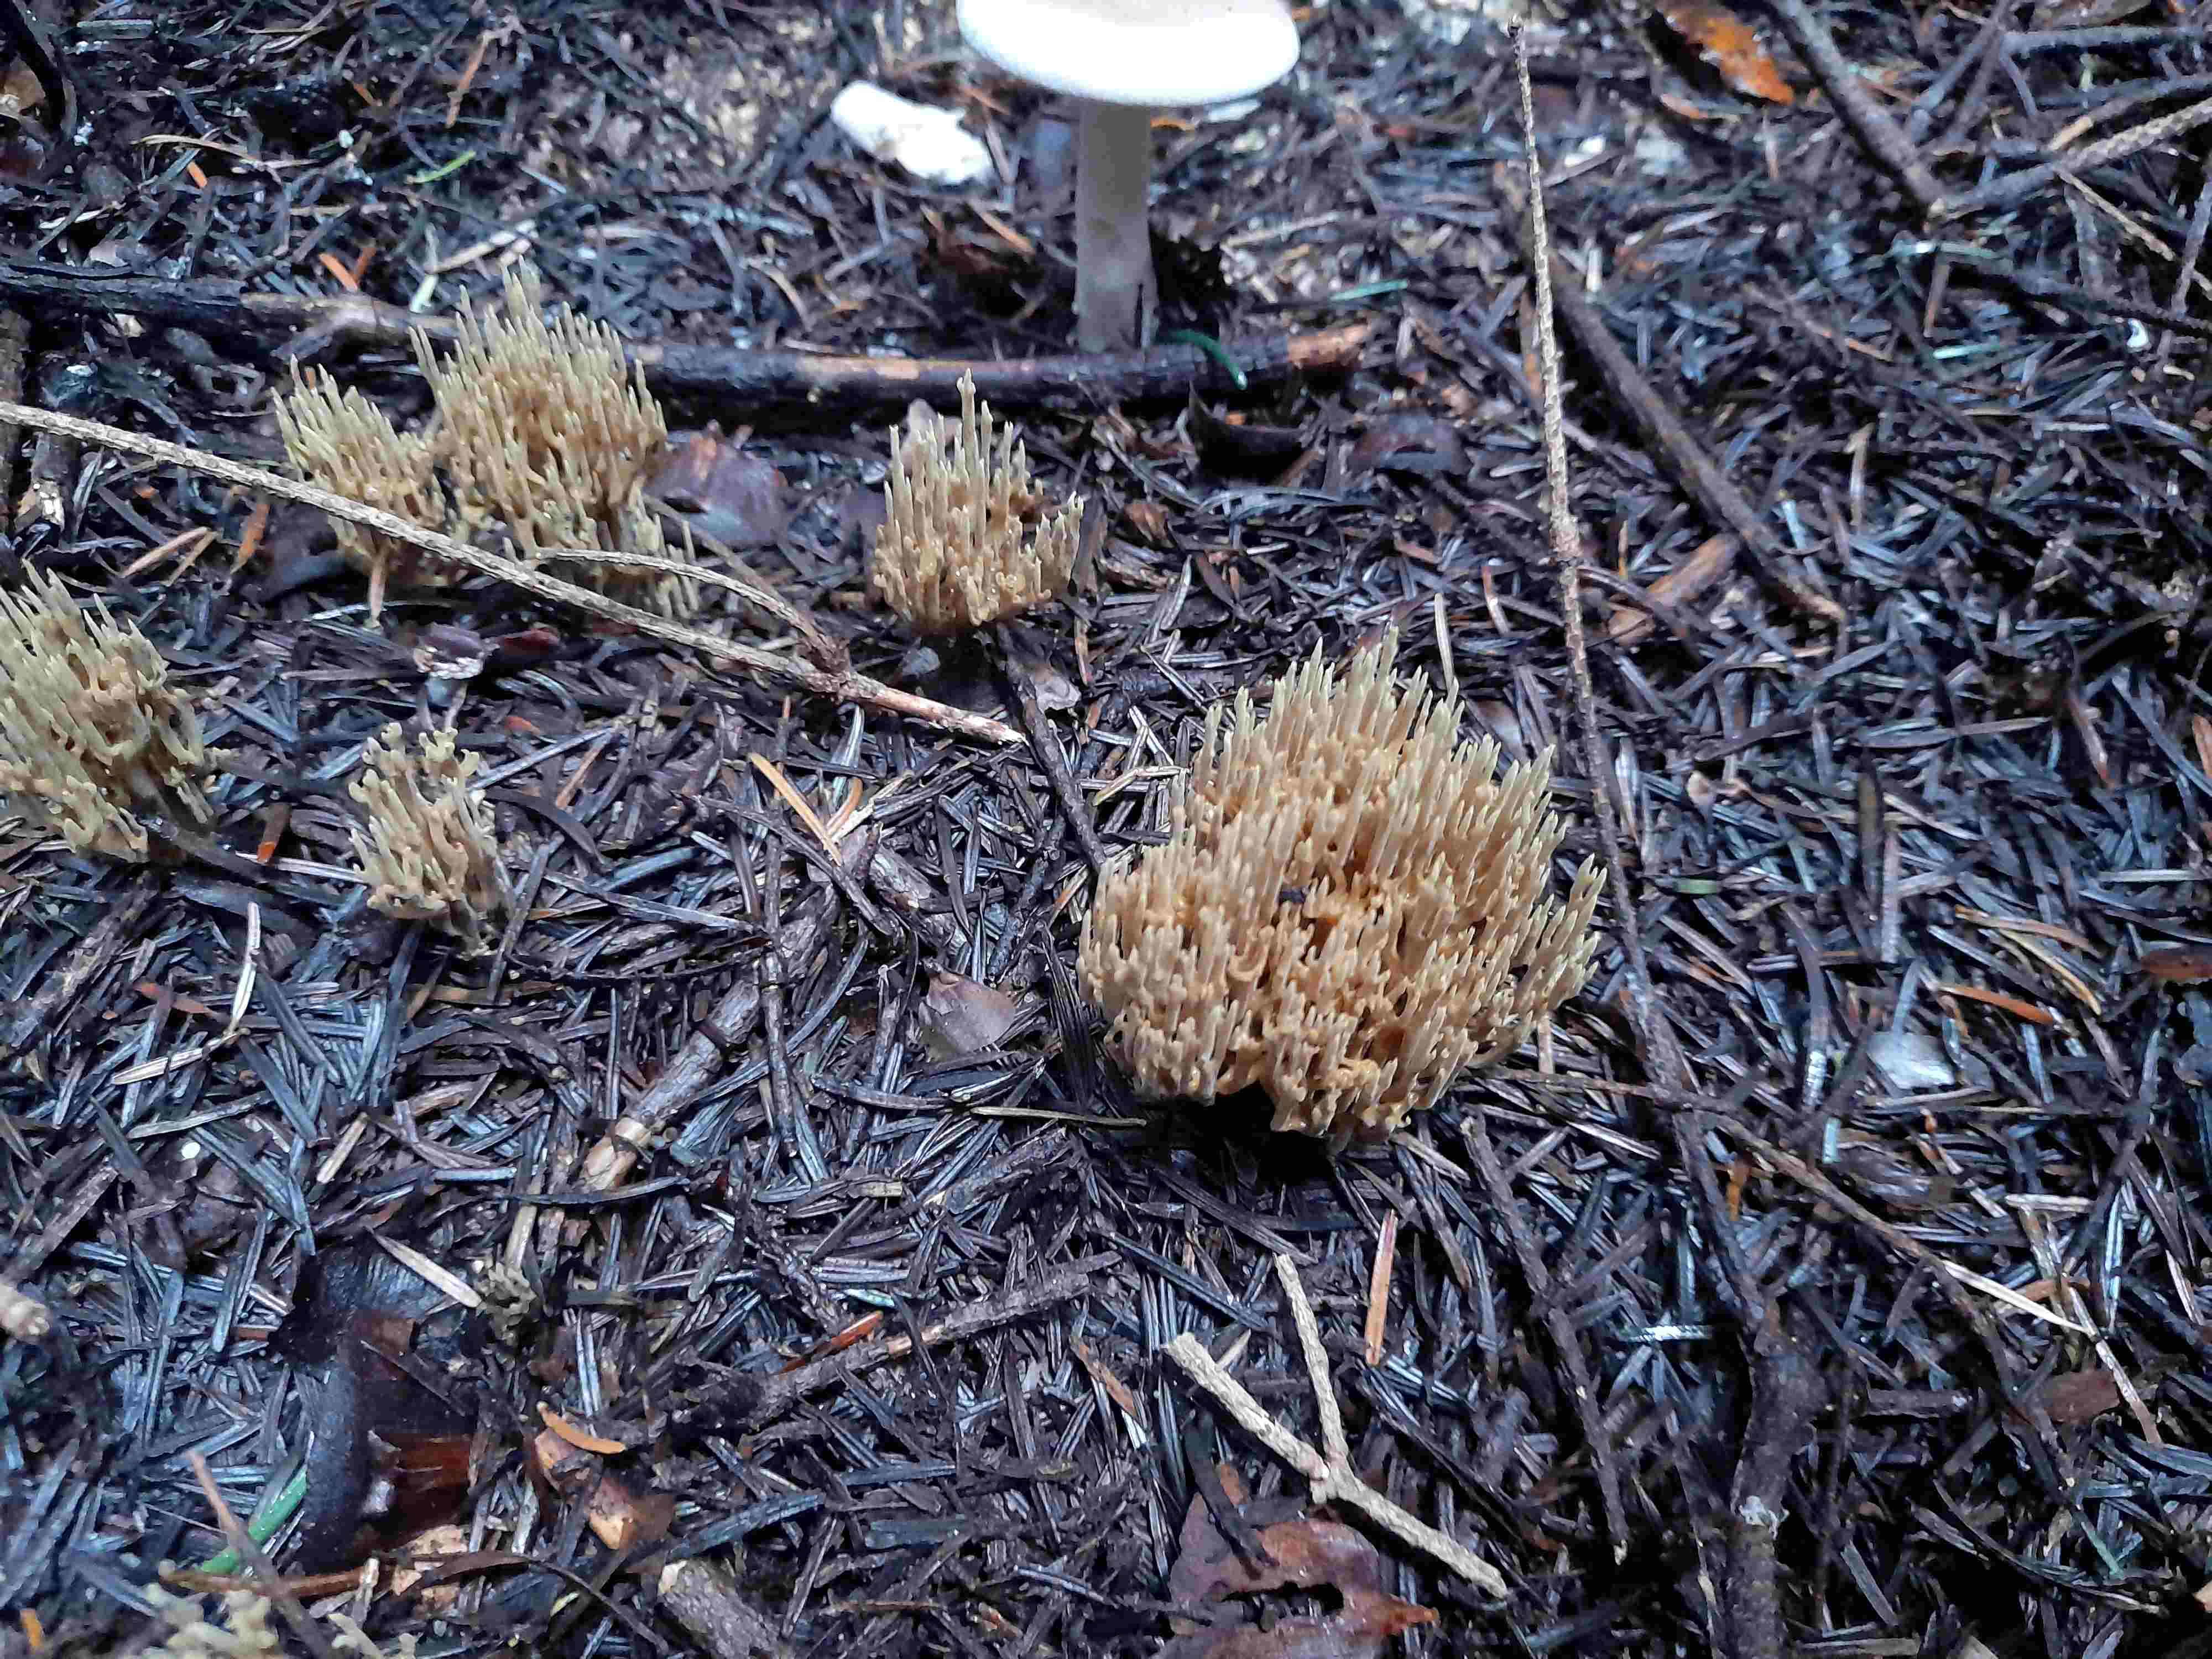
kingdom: Fungi
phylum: Basidiomycota
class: Agaricomycetes
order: Gomphales
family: Gomphaceae
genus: Phaeoclavulina
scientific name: Phaeoclavulina eumorpha
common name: gran-koralsvamp
